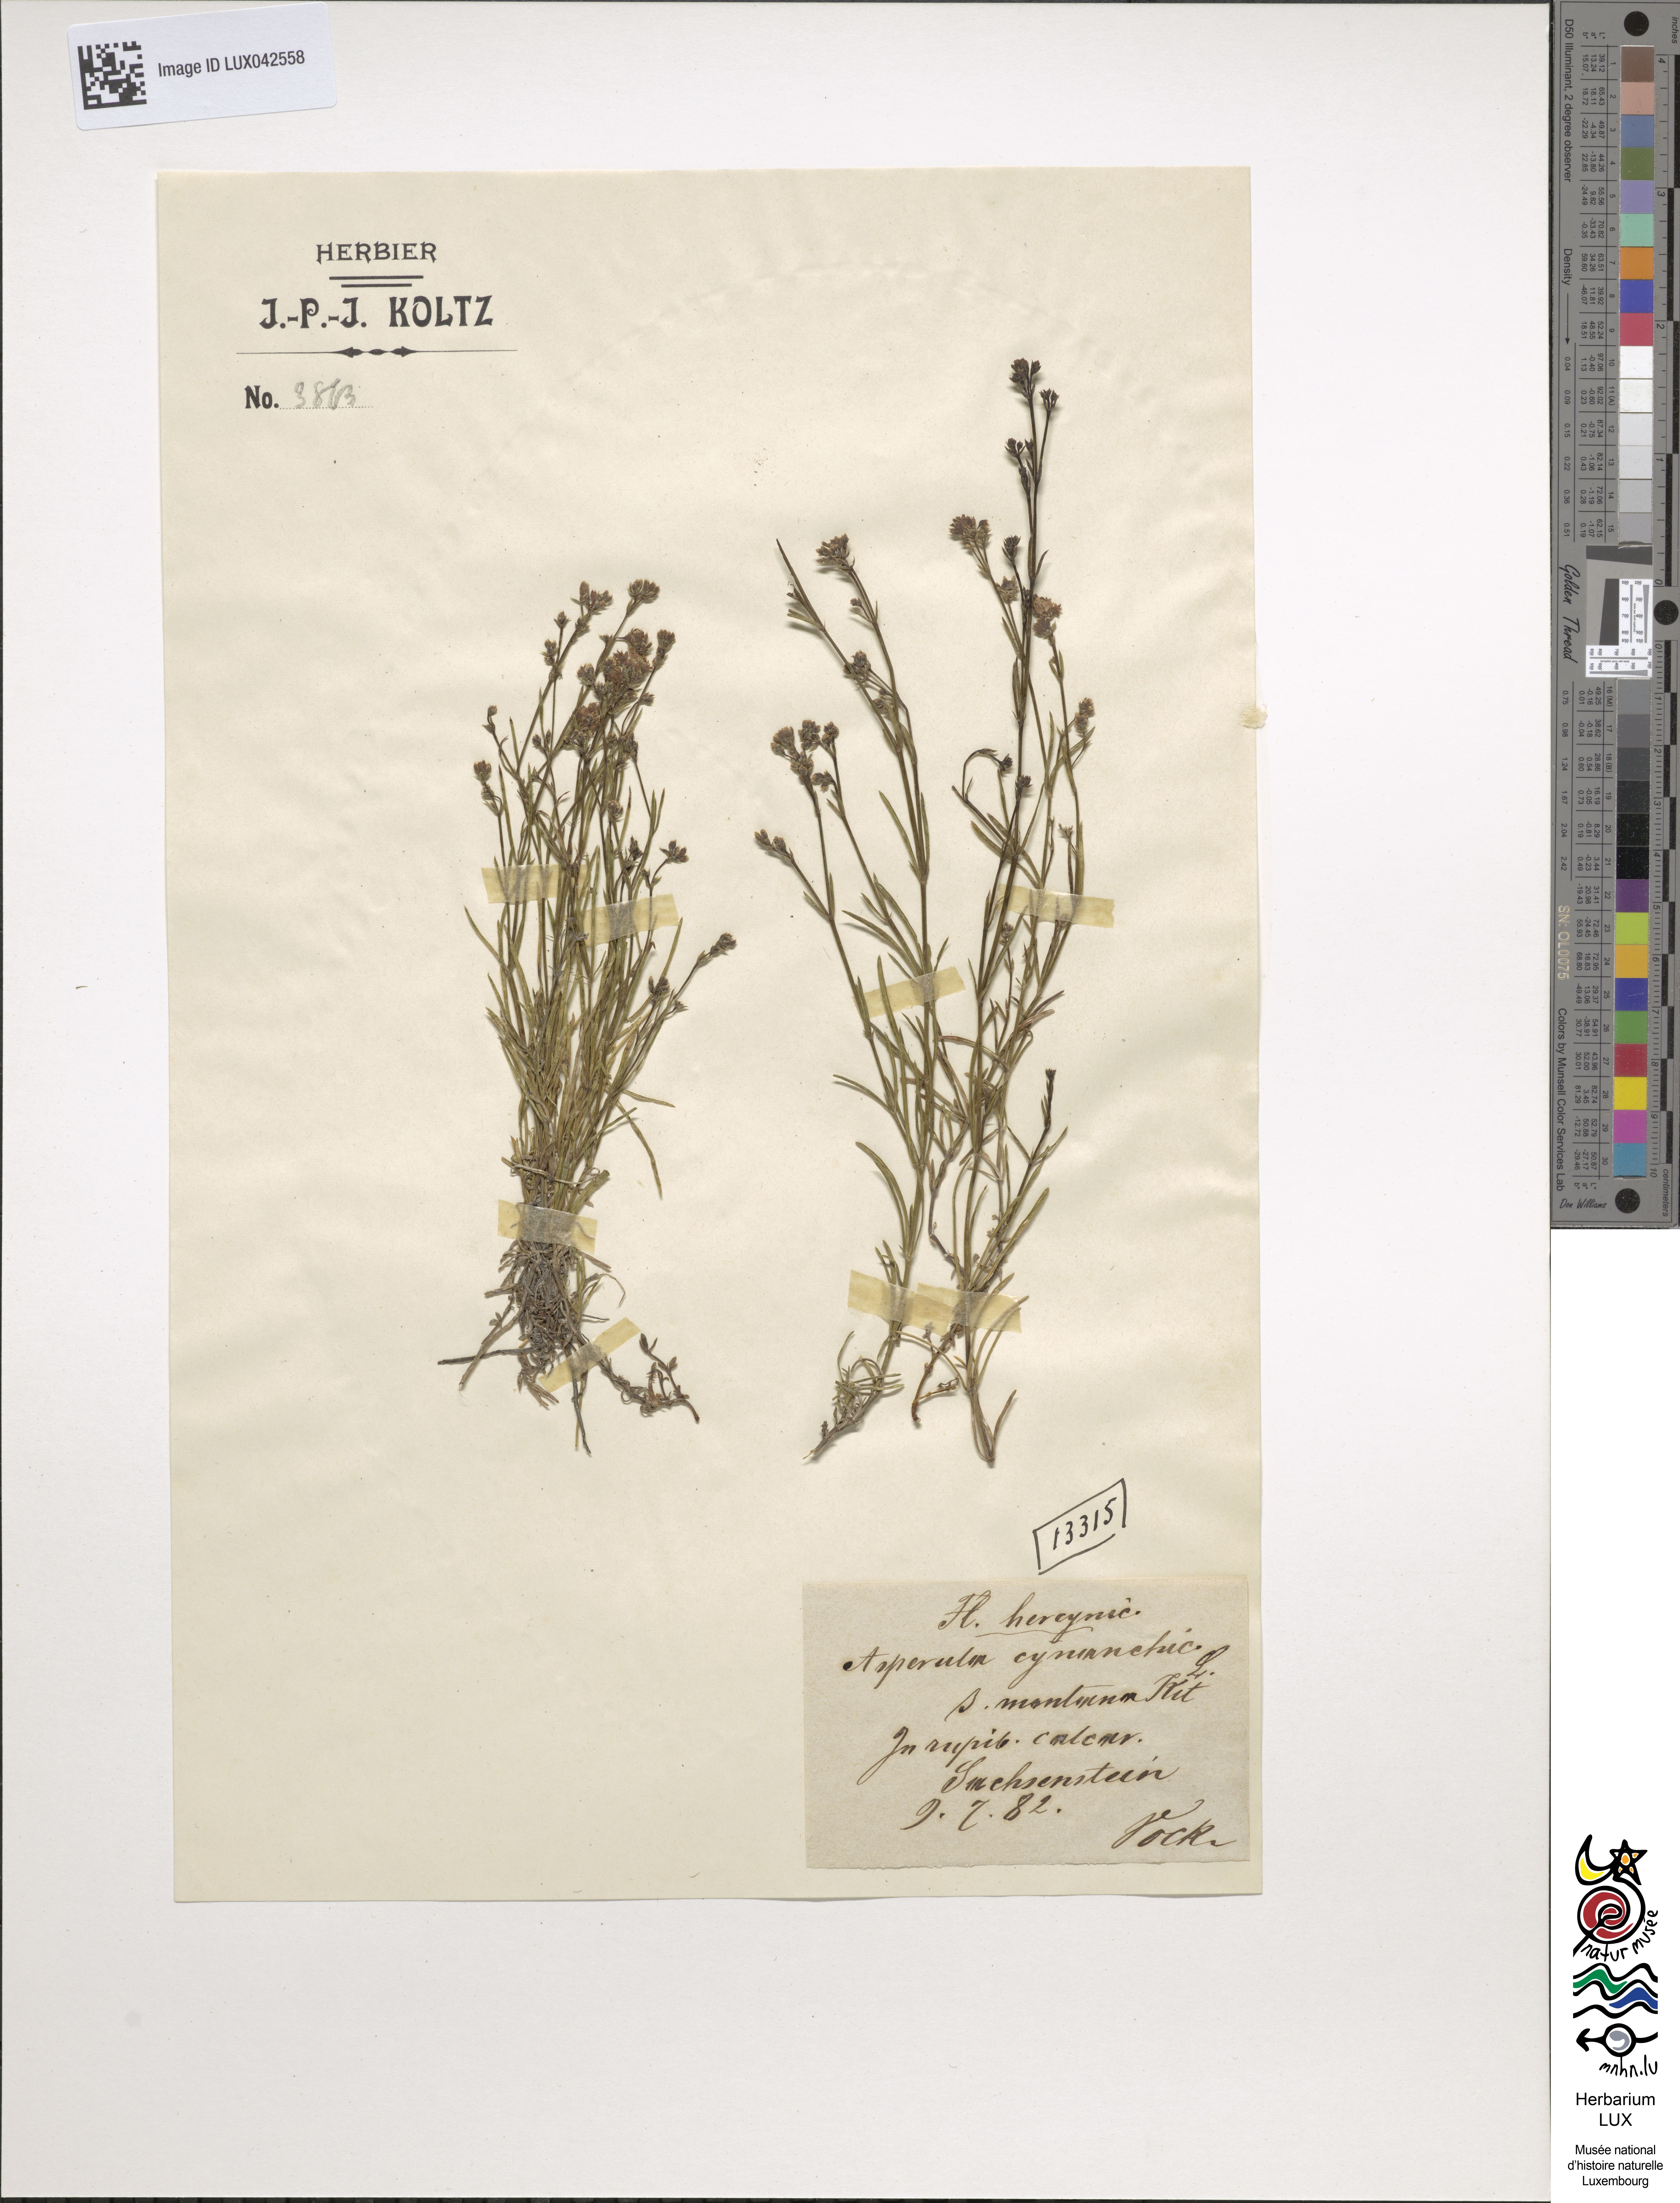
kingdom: Plantae
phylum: Tracheophyta
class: Magnoliopsida
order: Gentianales
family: Rubiaceae
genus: Cynanchica
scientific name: Cynanchica pyrenaica
